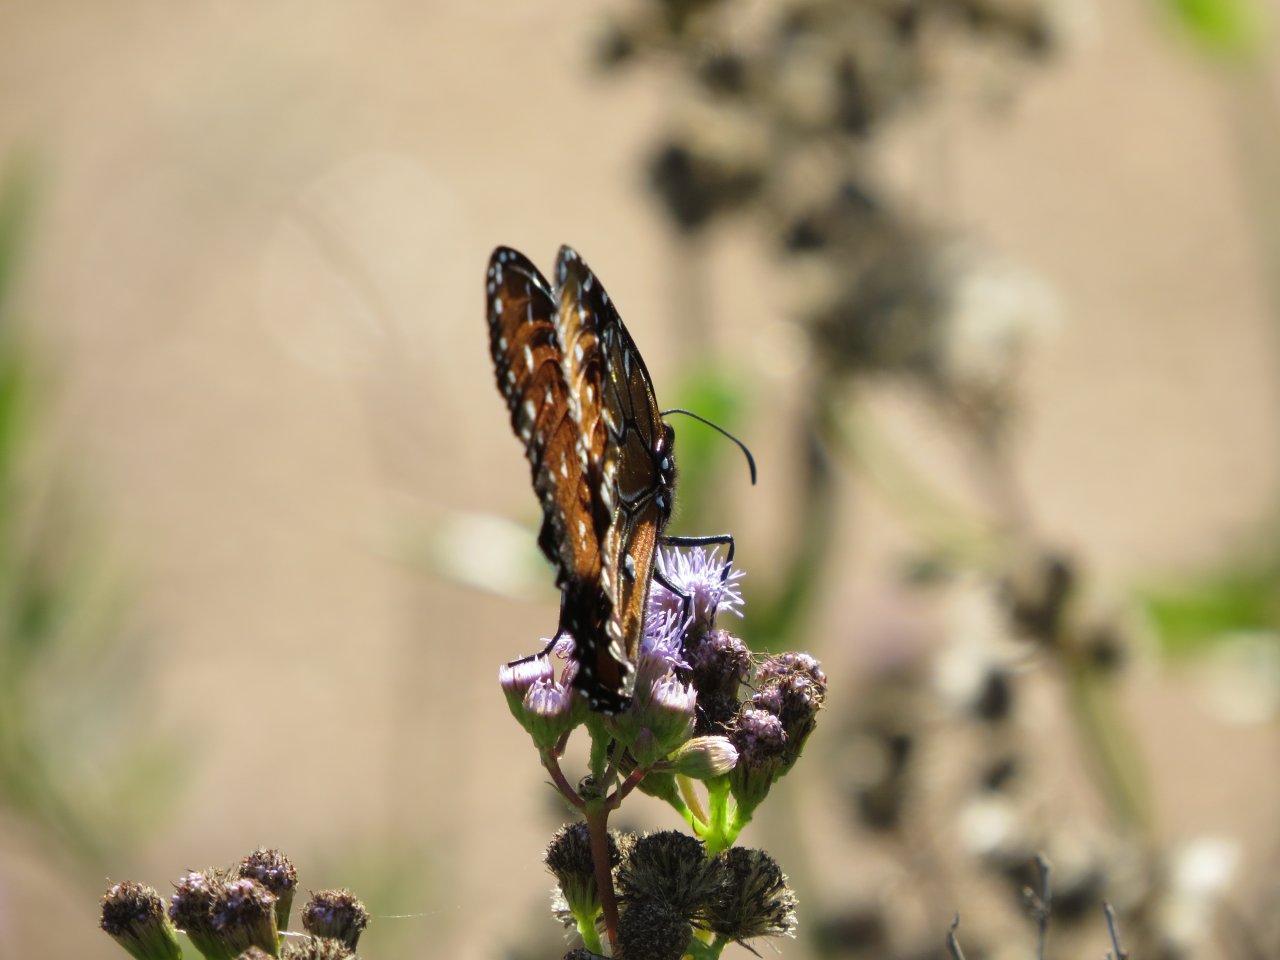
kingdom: Animalia
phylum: Arthropoda
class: Insecta
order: Lepidoptera
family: Nymphalidae
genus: Danaus
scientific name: Danaus eresimus
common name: Soldier
